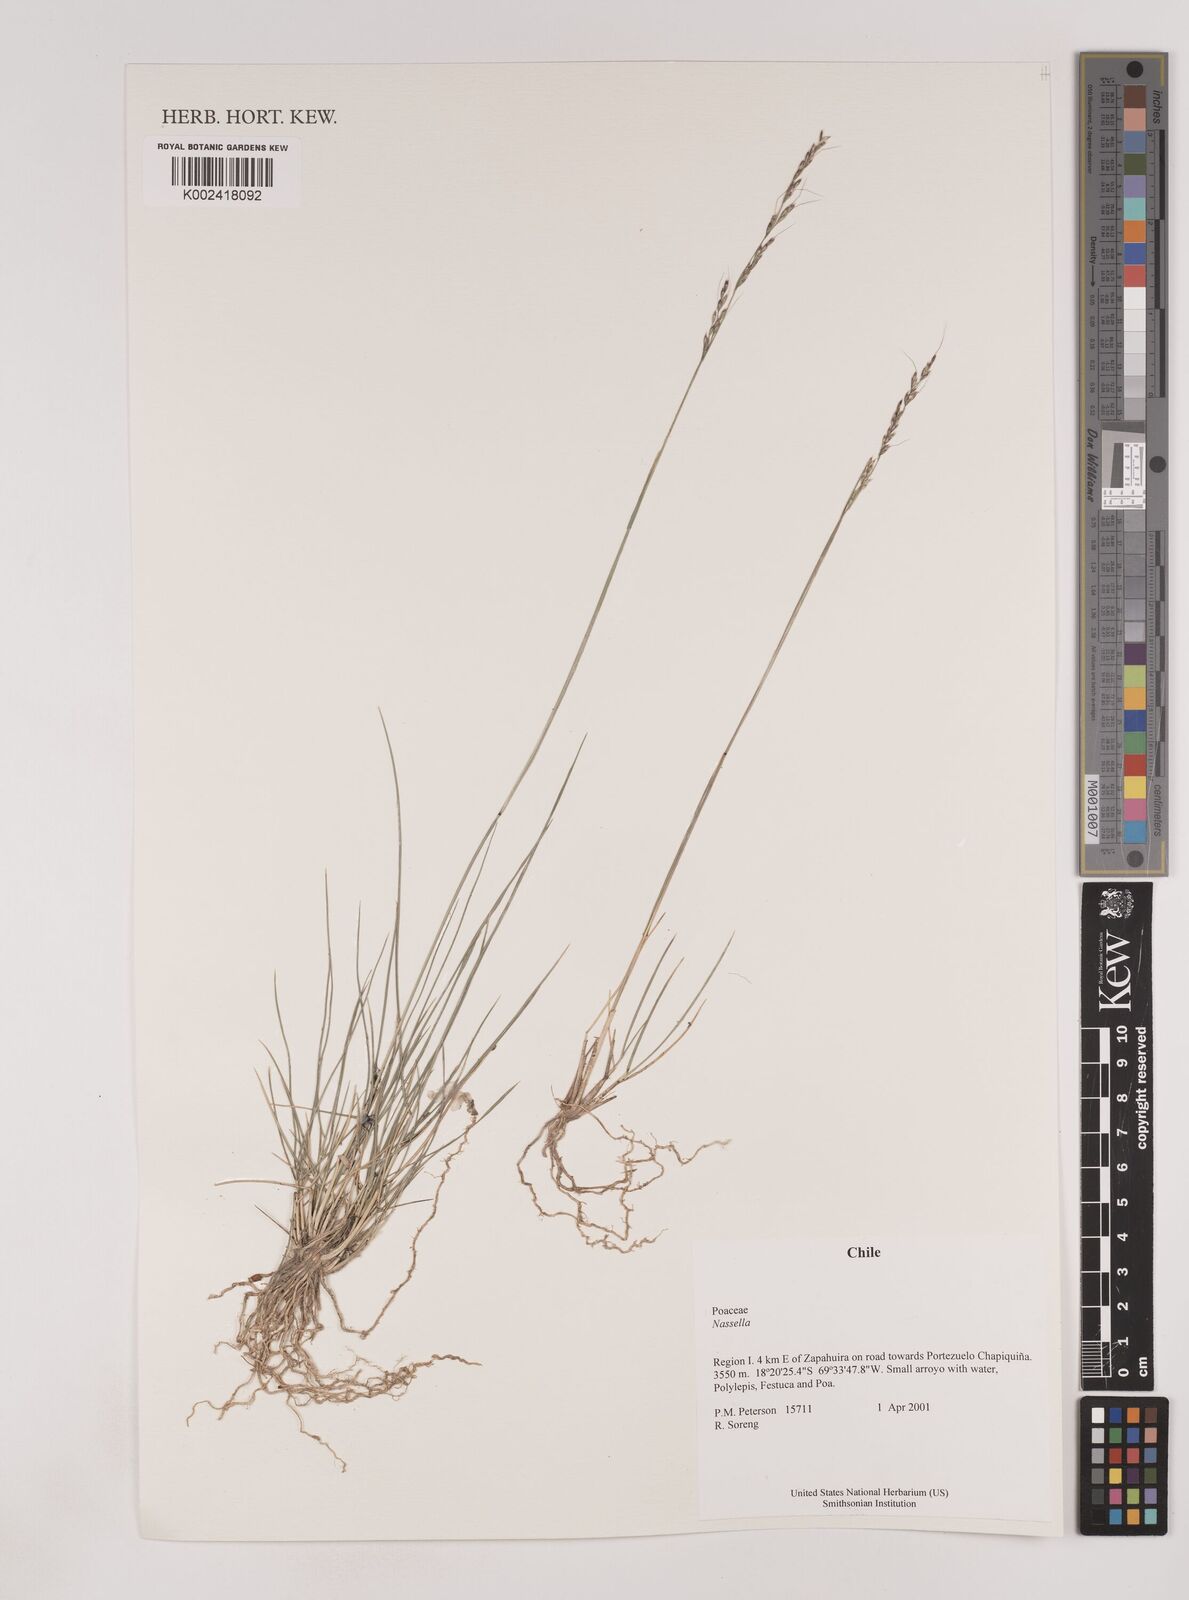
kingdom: Plantae
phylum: Tracheophyta
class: Liliopsida
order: Poales
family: Poaceae
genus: Nassella
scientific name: Nassella
